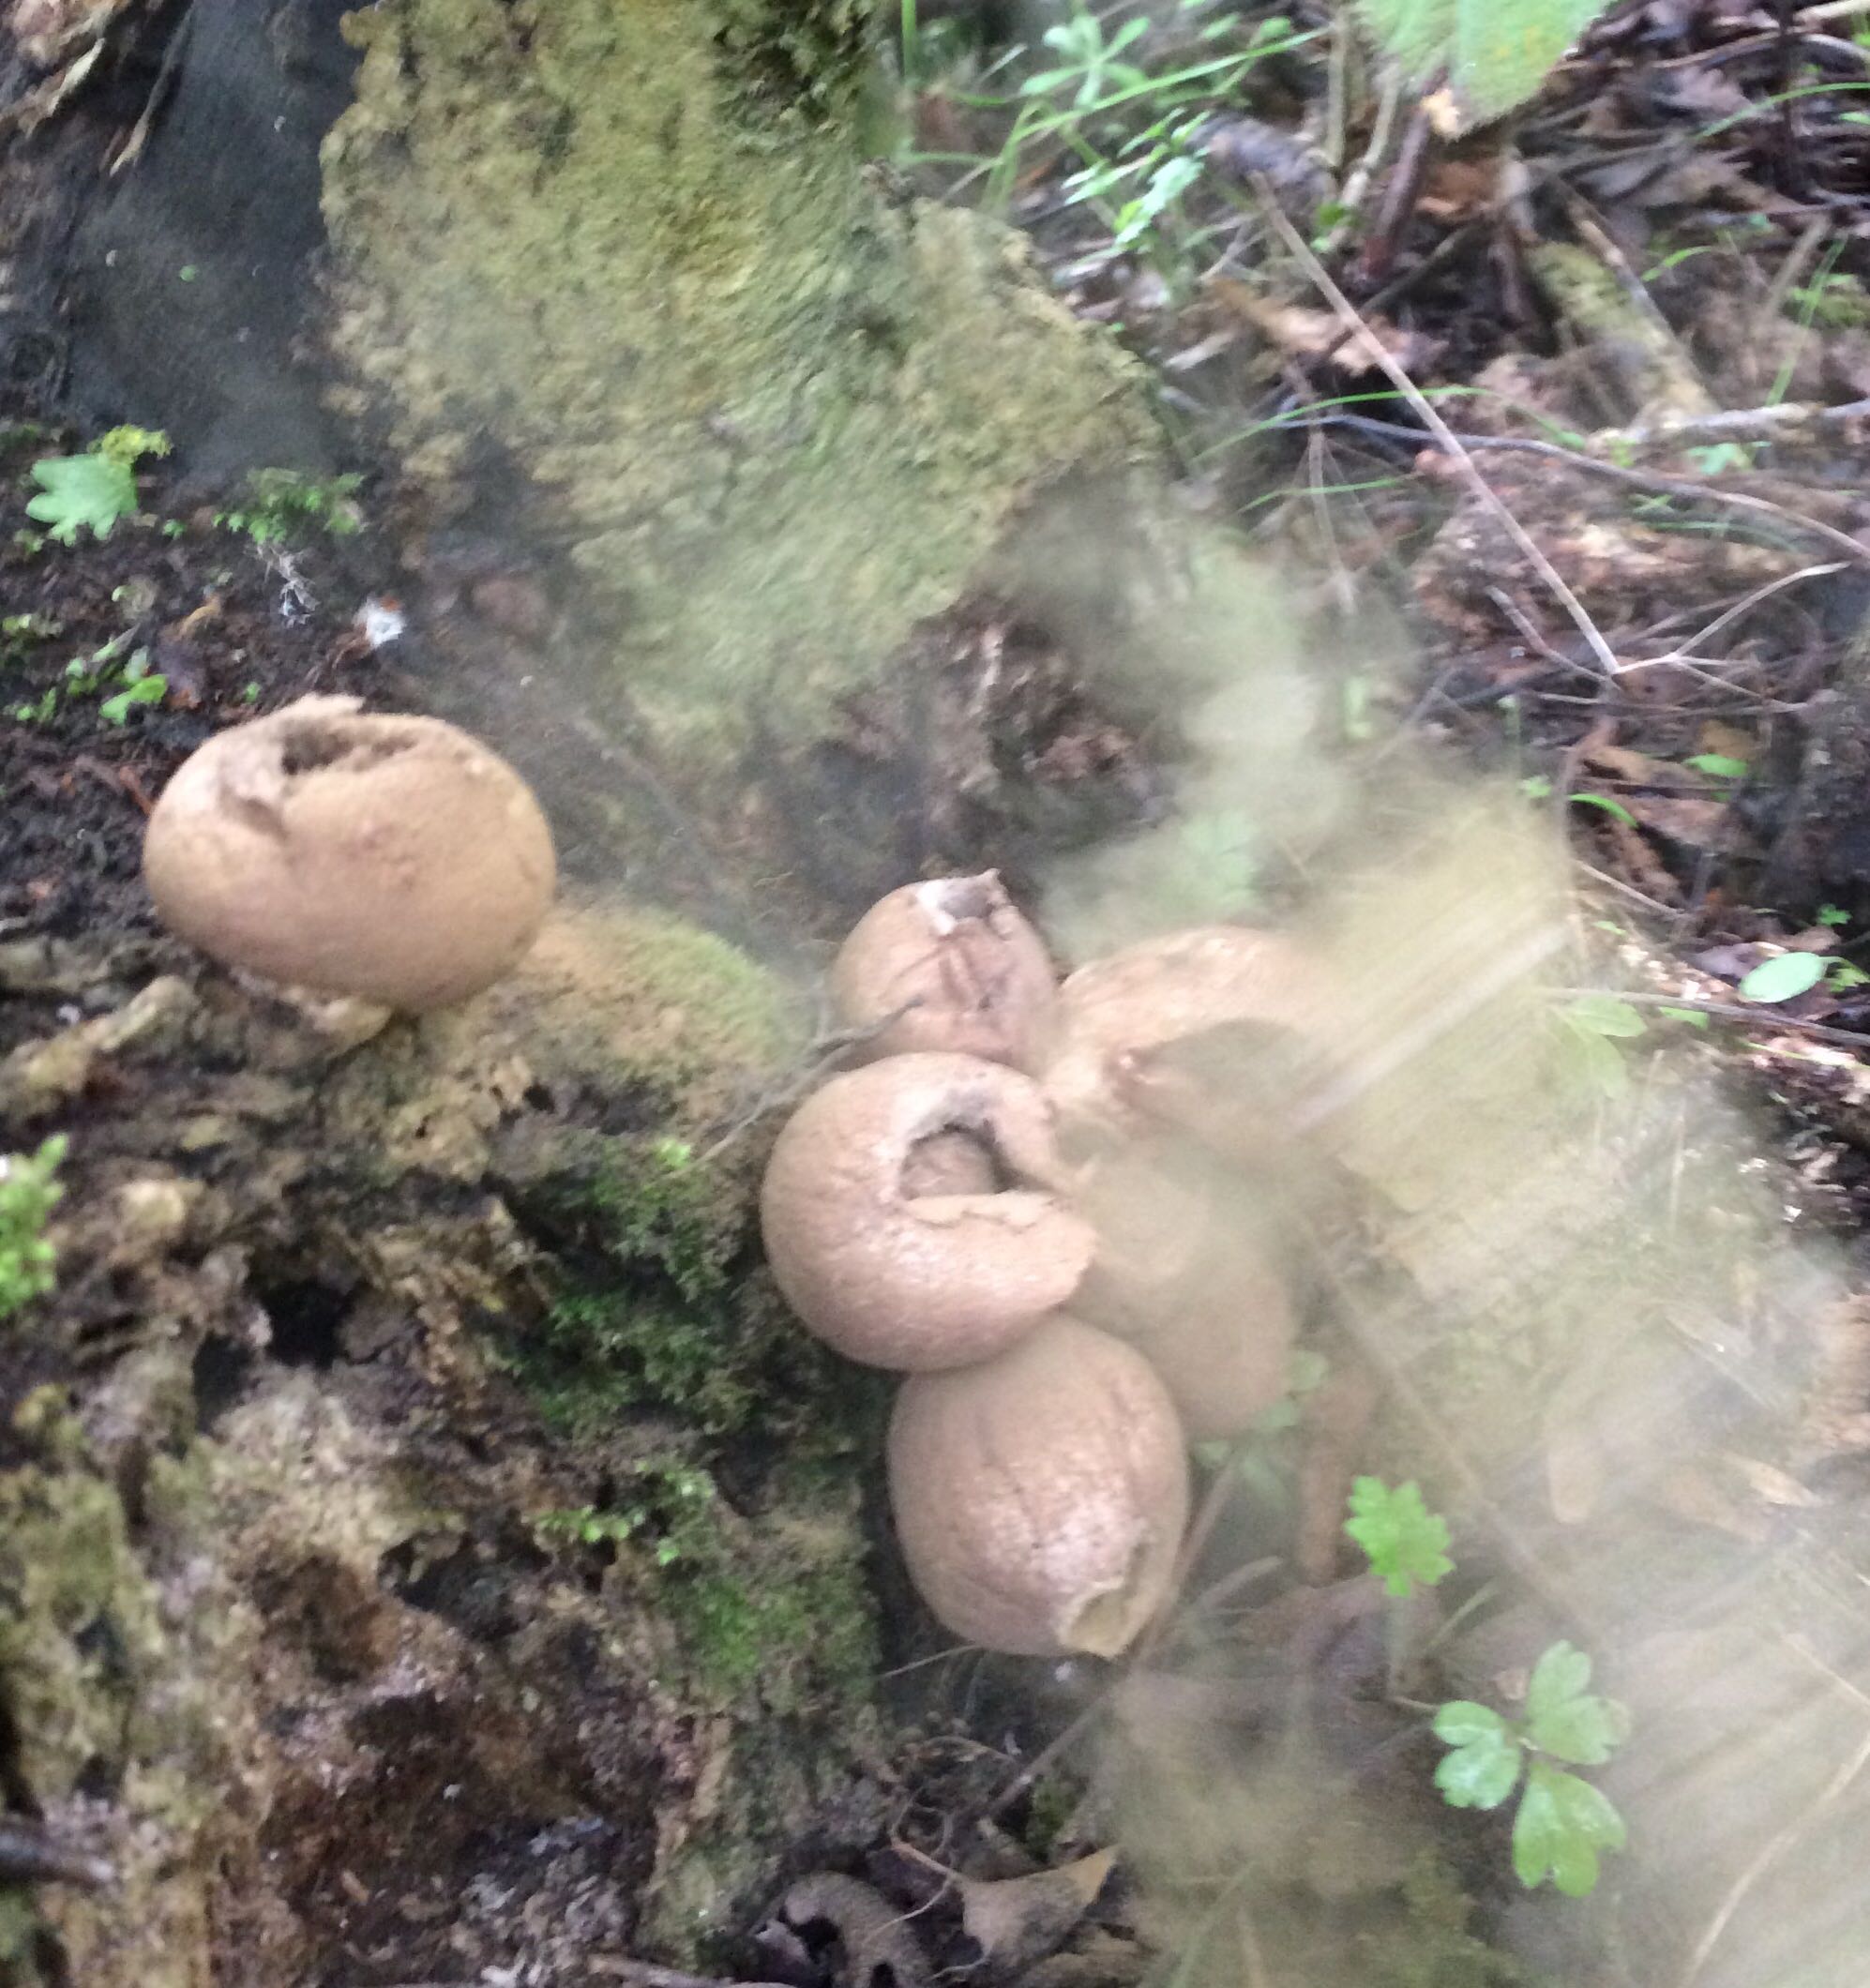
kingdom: Fungi
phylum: Basidiomycota
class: Agaricomycetes
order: Agaricales
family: Lycoperdaceae
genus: Apioperdon
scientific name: Apioperdon pyriforme
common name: pære-støvbold
